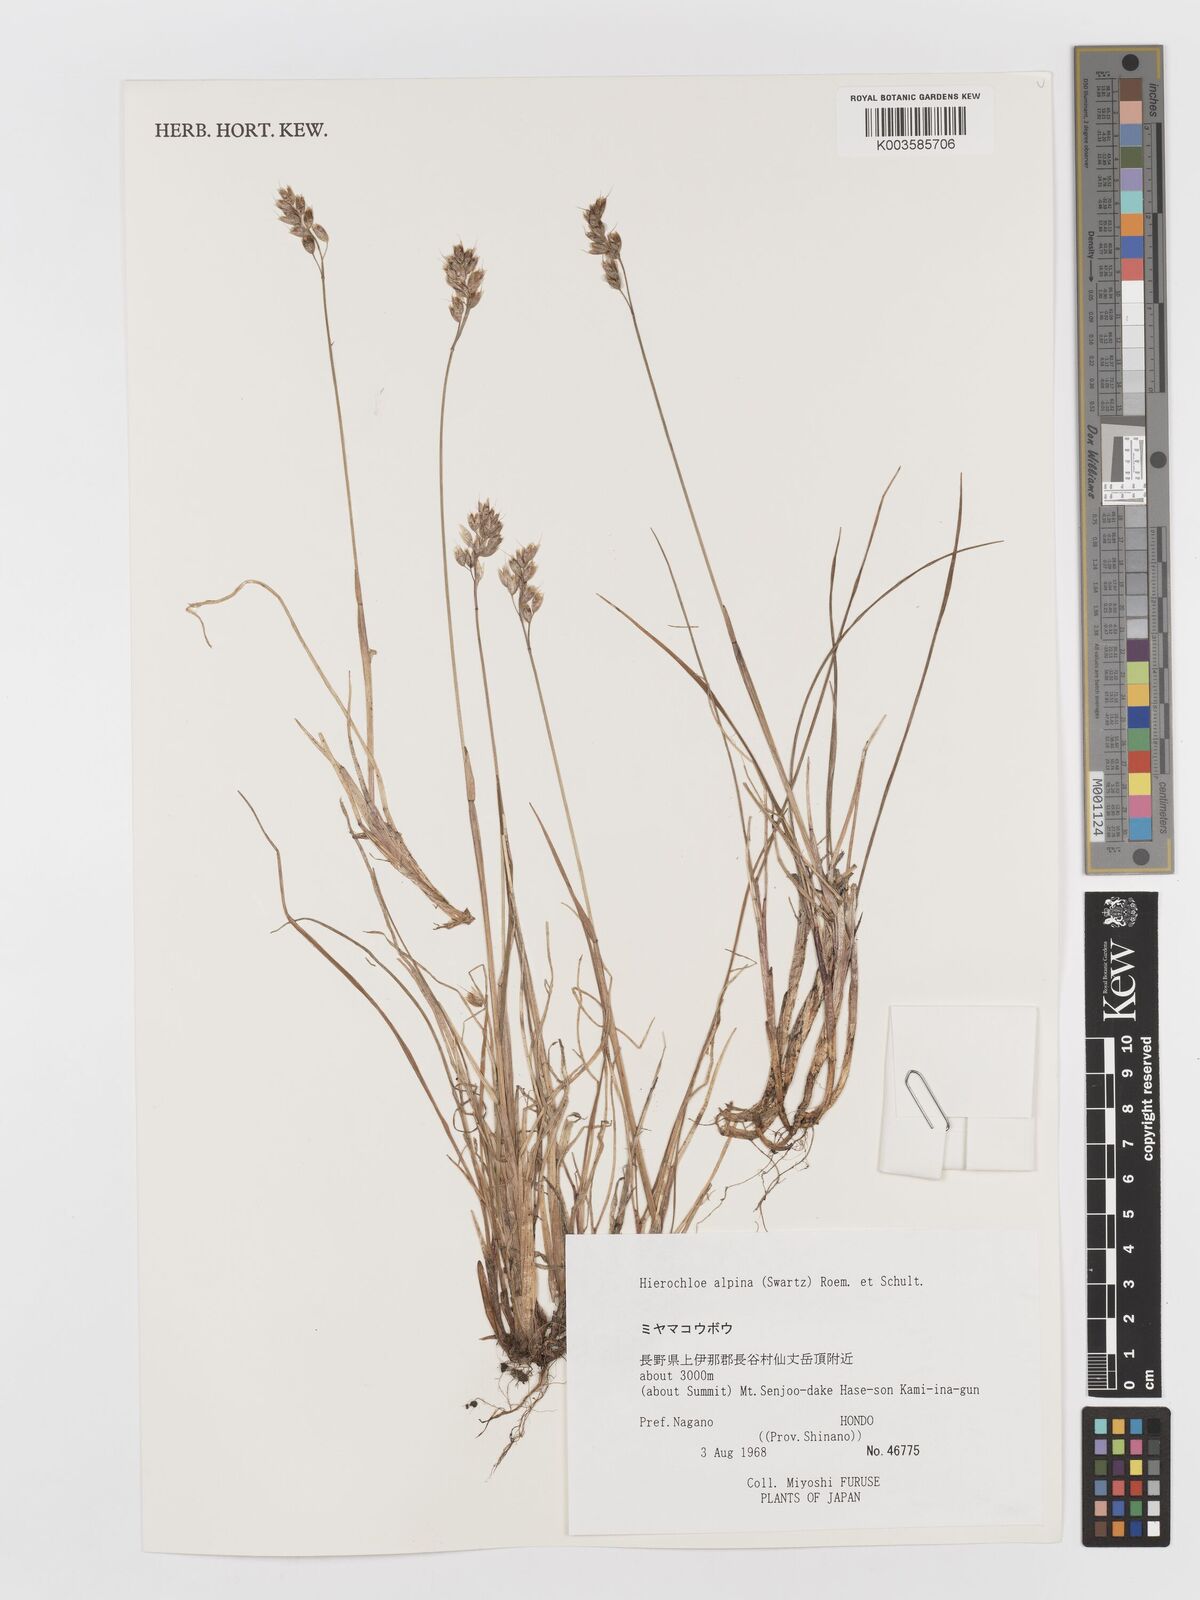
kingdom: Plantae
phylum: Tracheophyta
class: Liliopsida
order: Poales
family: Poaceae
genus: Anthoxanthum
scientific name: Anthoxanthum monticola
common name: Alpine sweetgrass
